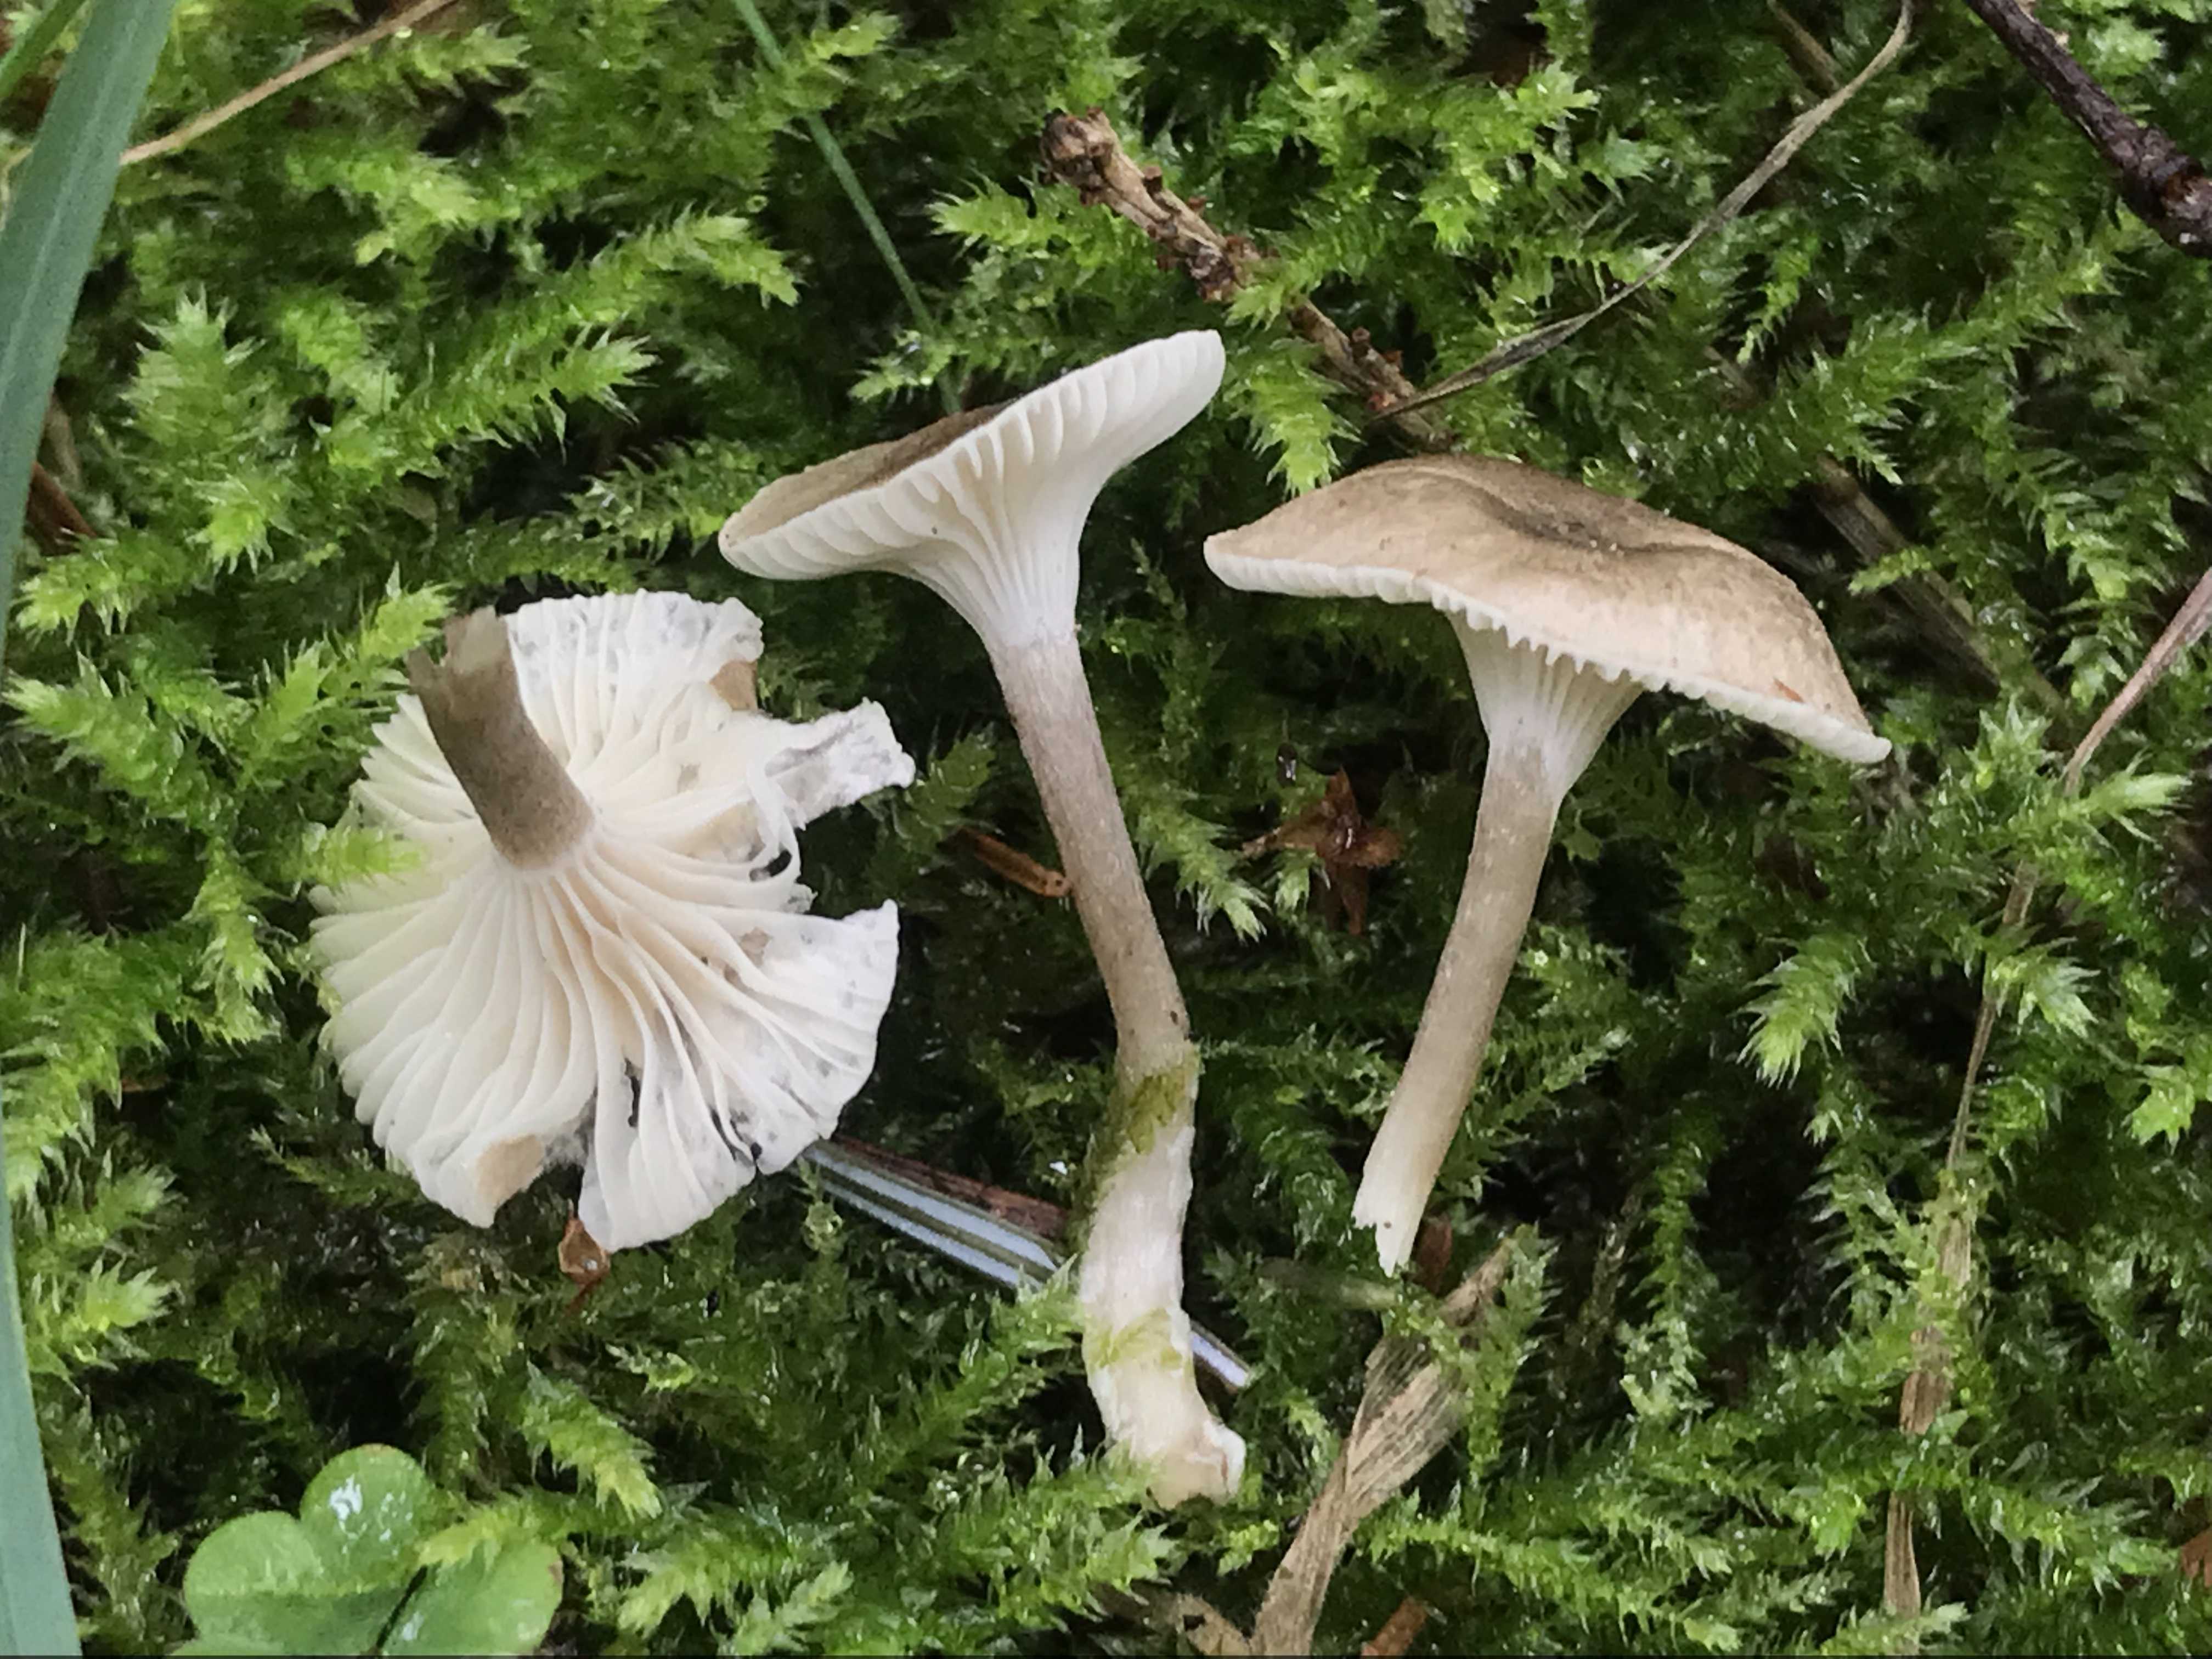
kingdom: Fungi
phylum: Basidiomycota
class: Agaricomycetes
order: Agaricales
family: Hygrophoraceae
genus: Hygrophorus
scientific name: Hygrophorus
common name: sneglehat
